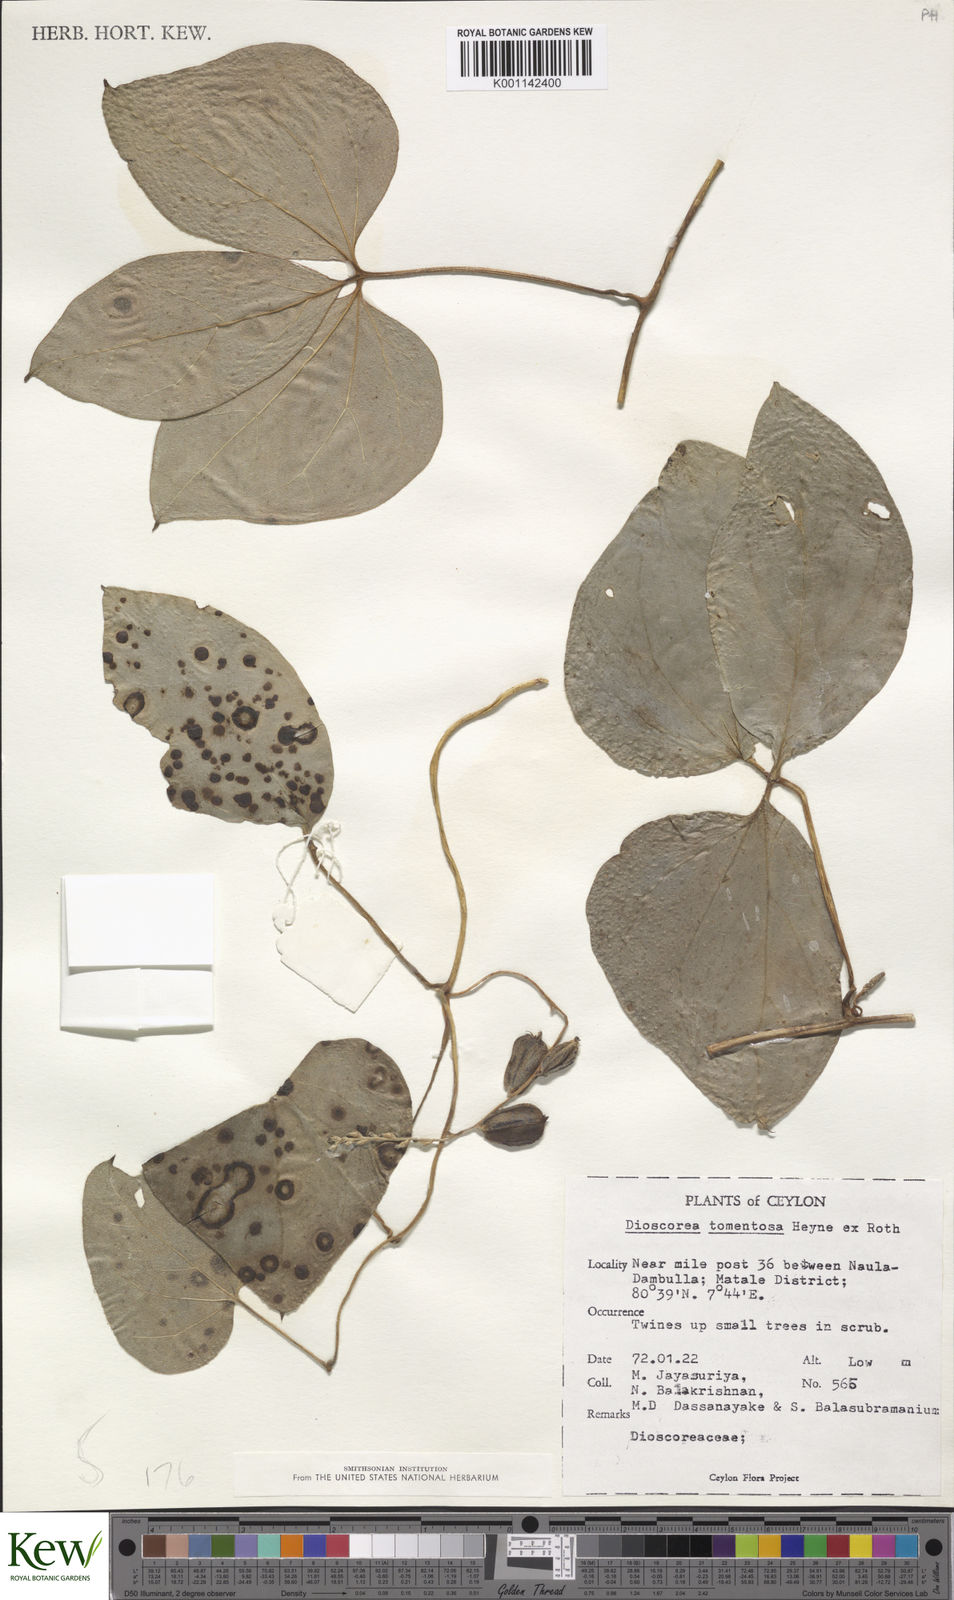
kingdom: Plantae
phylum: Tracheophyta
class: Liliopsida
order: Dioscoreales
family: Dioscoreaceae
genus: Dioscorea
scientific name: Dioscorea
